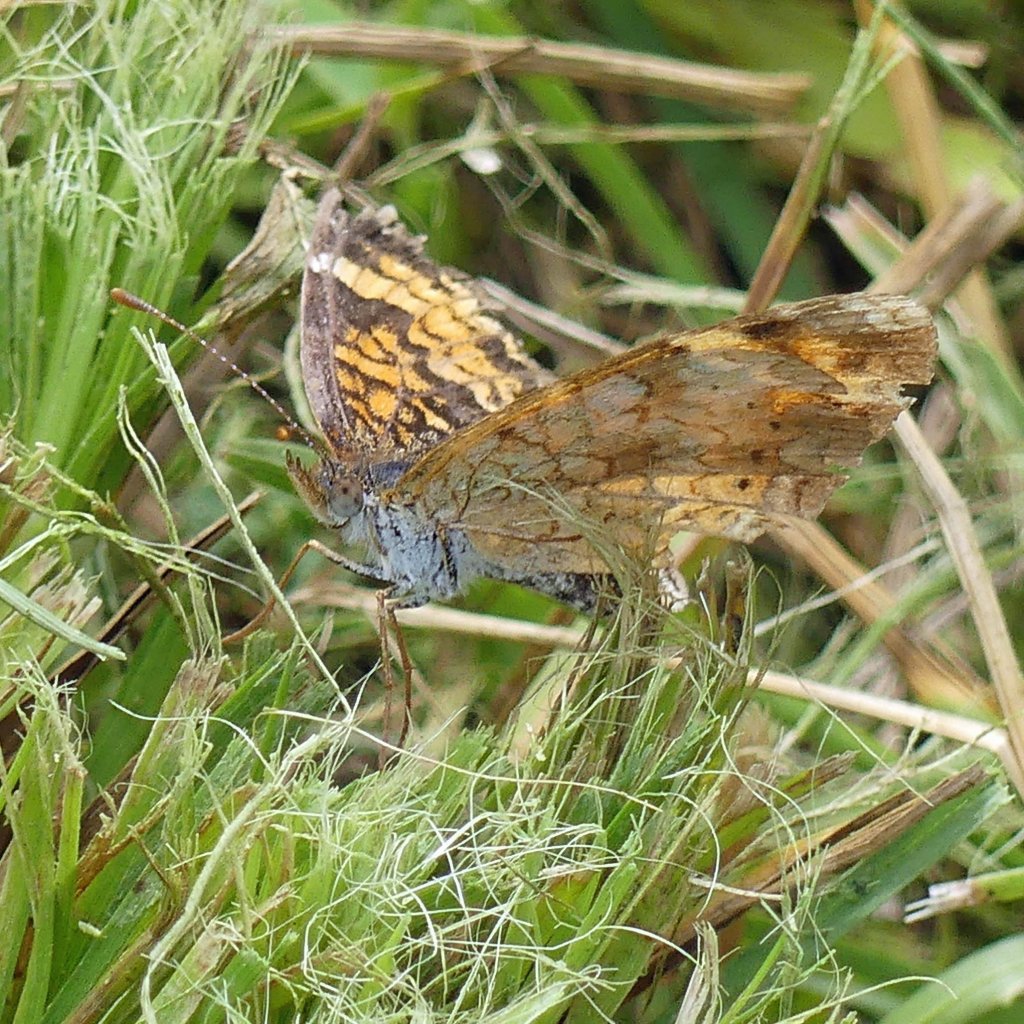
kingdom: Animalia
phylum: Arthropoda
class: Insecta
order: Lepidoptera
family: Nymphalidae
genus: Phyciodes
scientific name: Phyciodes tharos
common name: Northern Crescent
